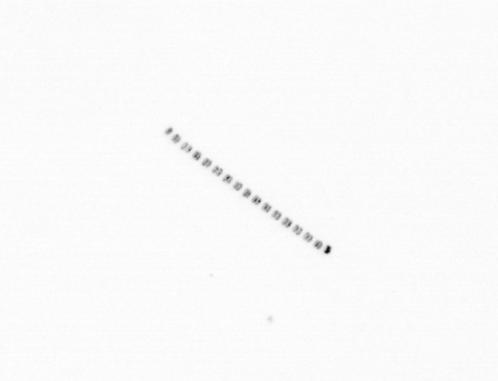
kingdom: Chromista
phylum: Ochrophyta
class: Bacillariophyceae
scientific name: Bacillariophyceae
